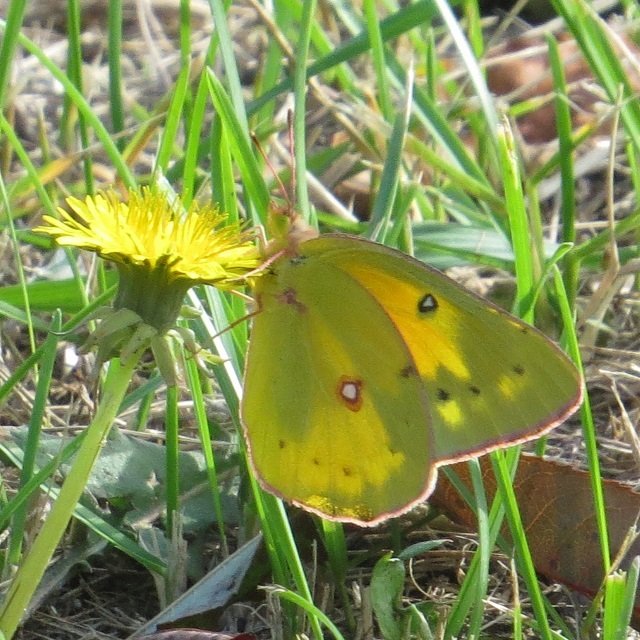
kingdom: Animalia
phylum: Arthropoda
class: Insecta
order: Lepidoptera
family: Pieridae
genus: Colias
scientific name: Colias eurytheme
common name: Orange Sulphur
